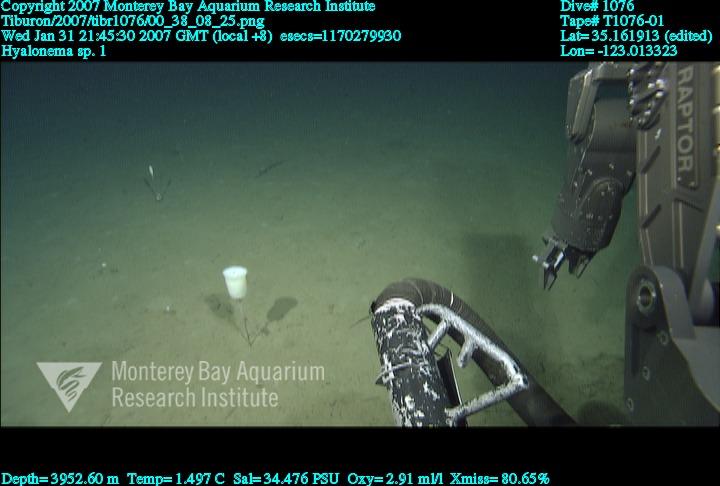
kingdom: Animalia
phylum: Porifera
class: Hexactinellida
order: Amphidiscosida
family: Hyalonematidae
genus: Hyalonema
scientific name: Hyalonema
